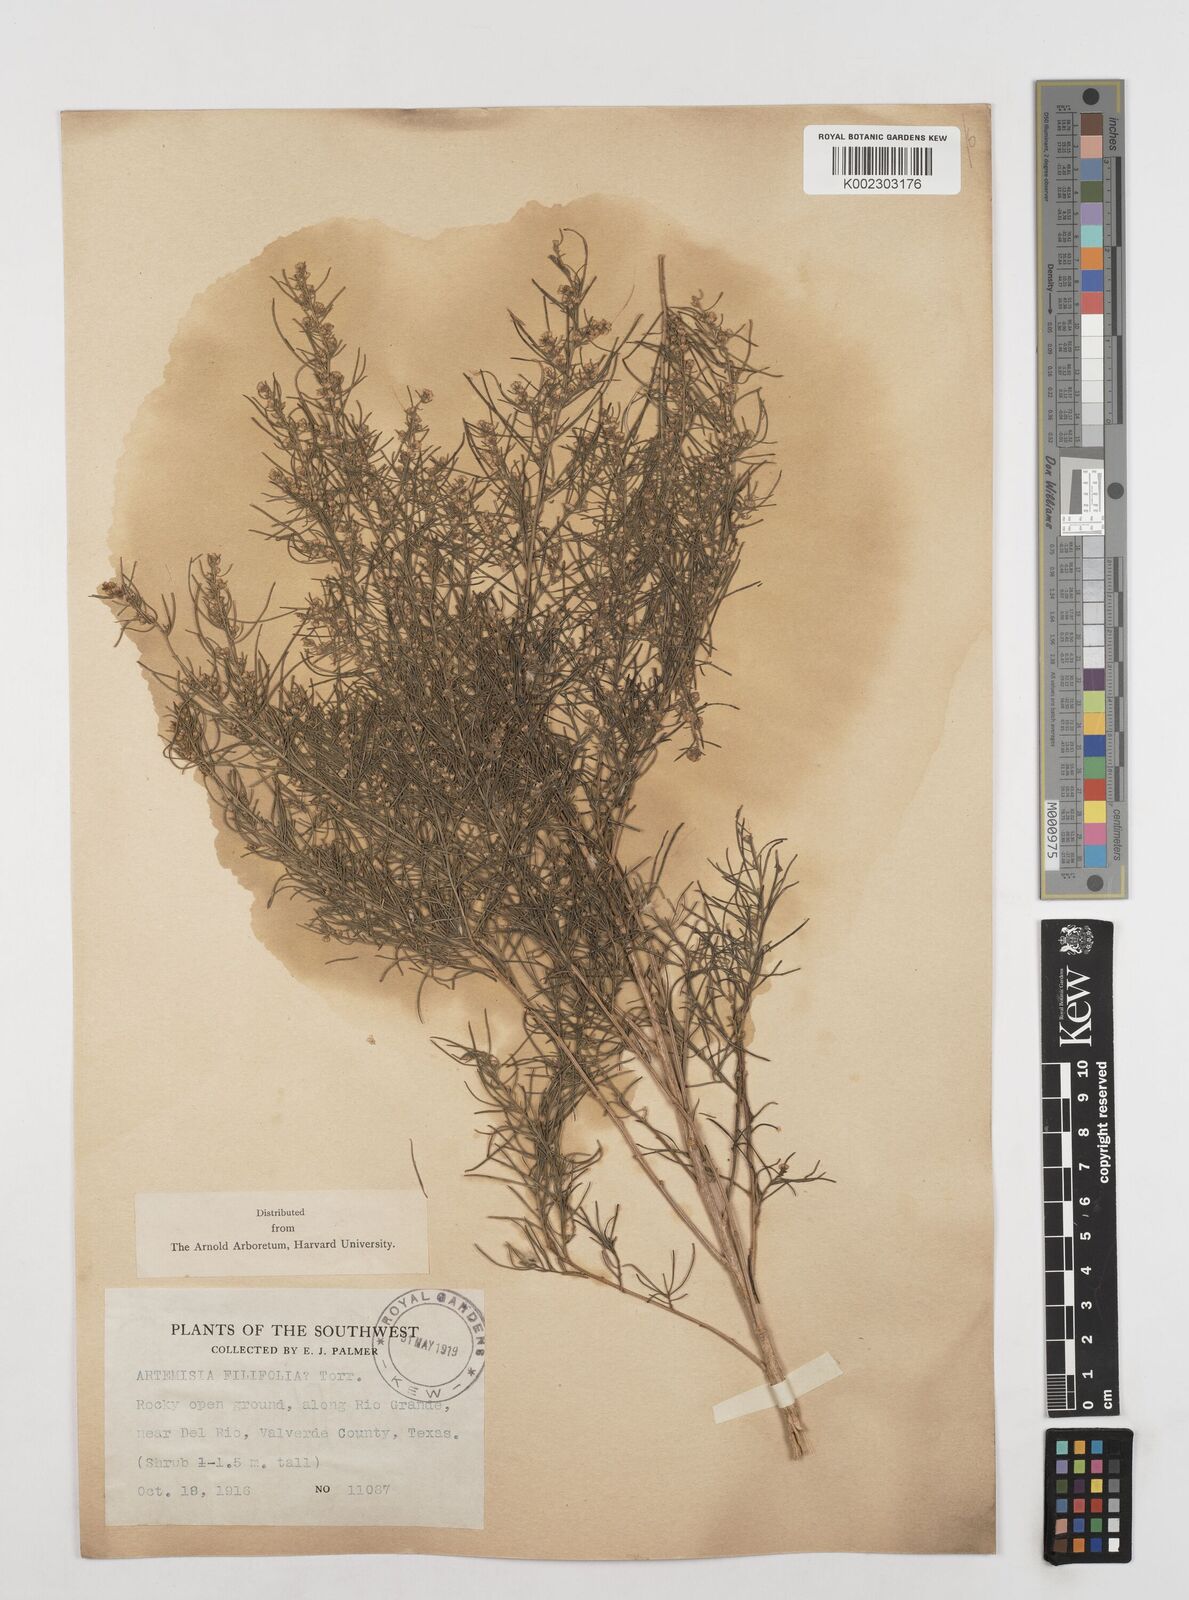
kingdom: Plantae
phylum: Tracheophyta
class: Magnoliopsida
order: Asterales
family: Asteraceae
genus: Artemisia
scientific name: Artemisia filifolia
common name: Sand-sage
